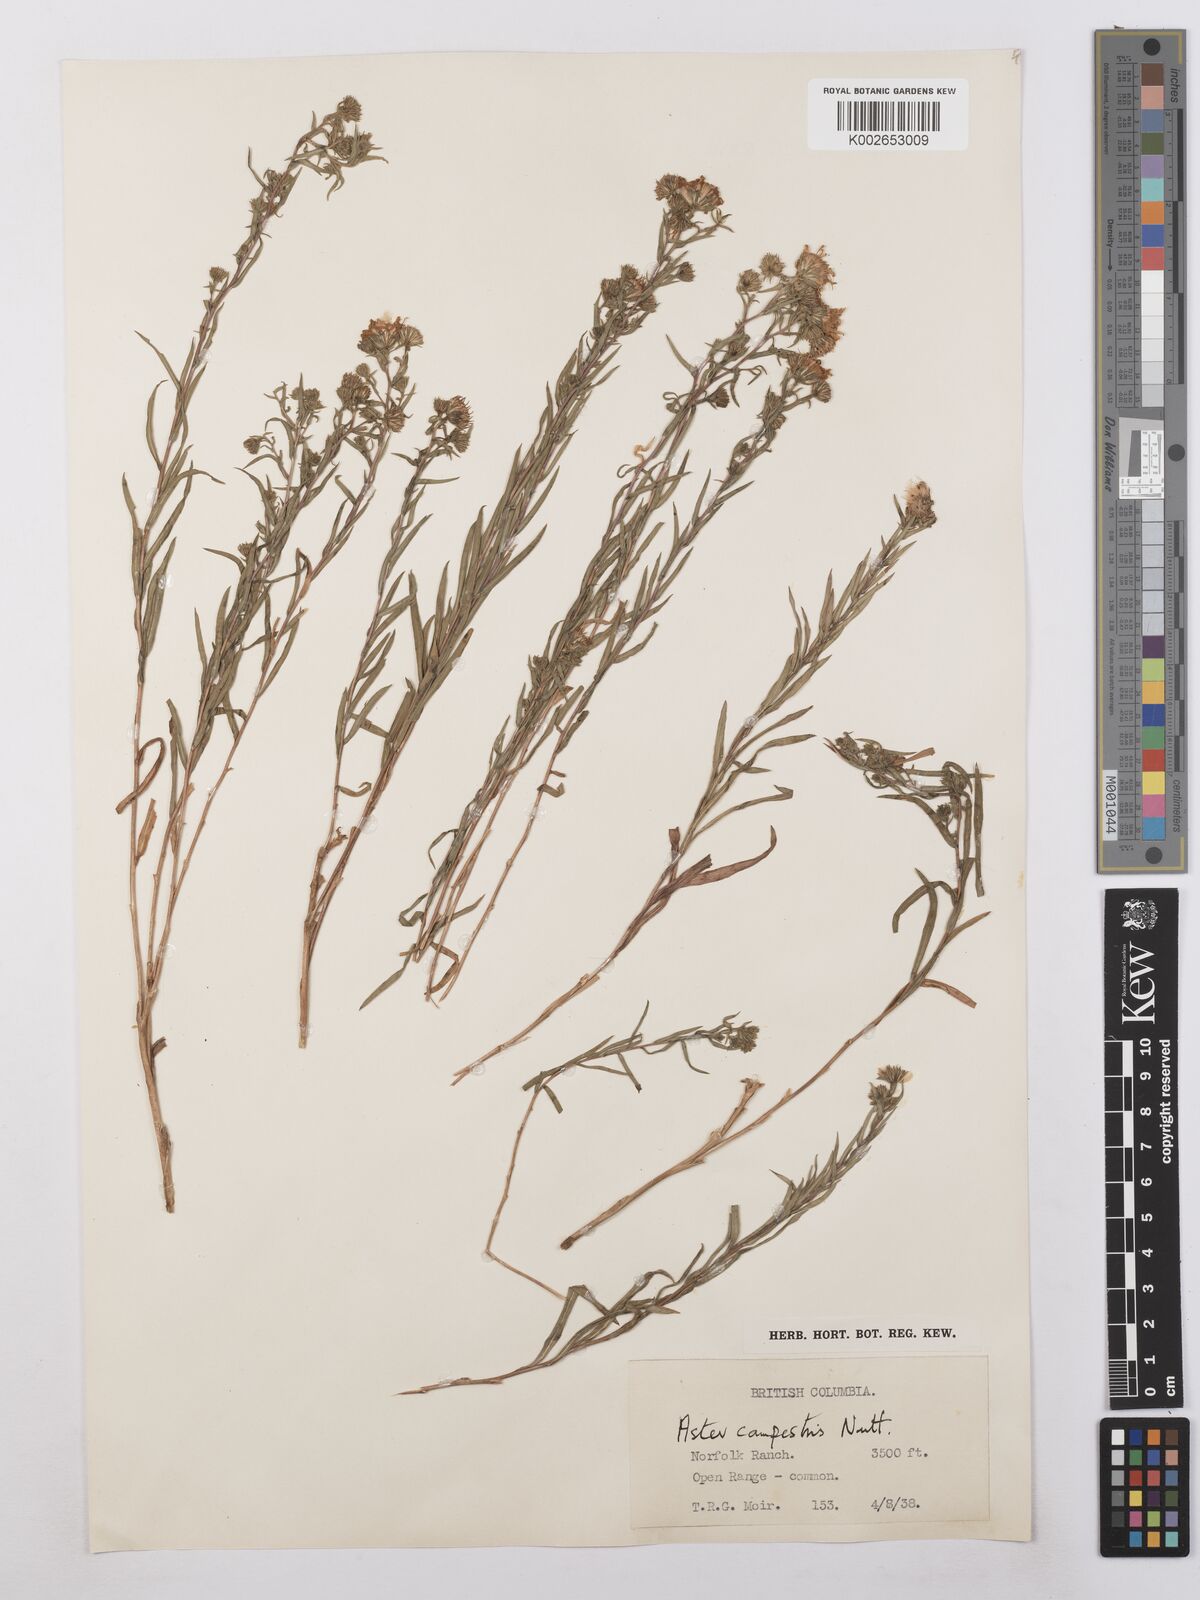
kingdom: Plantae
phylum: Tracheophyta
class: Magnoliopsida
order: Asterales
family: Asteraceae
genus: Symphyotrichum
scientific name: Symphyotrichum campestre
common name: Meadow aster
